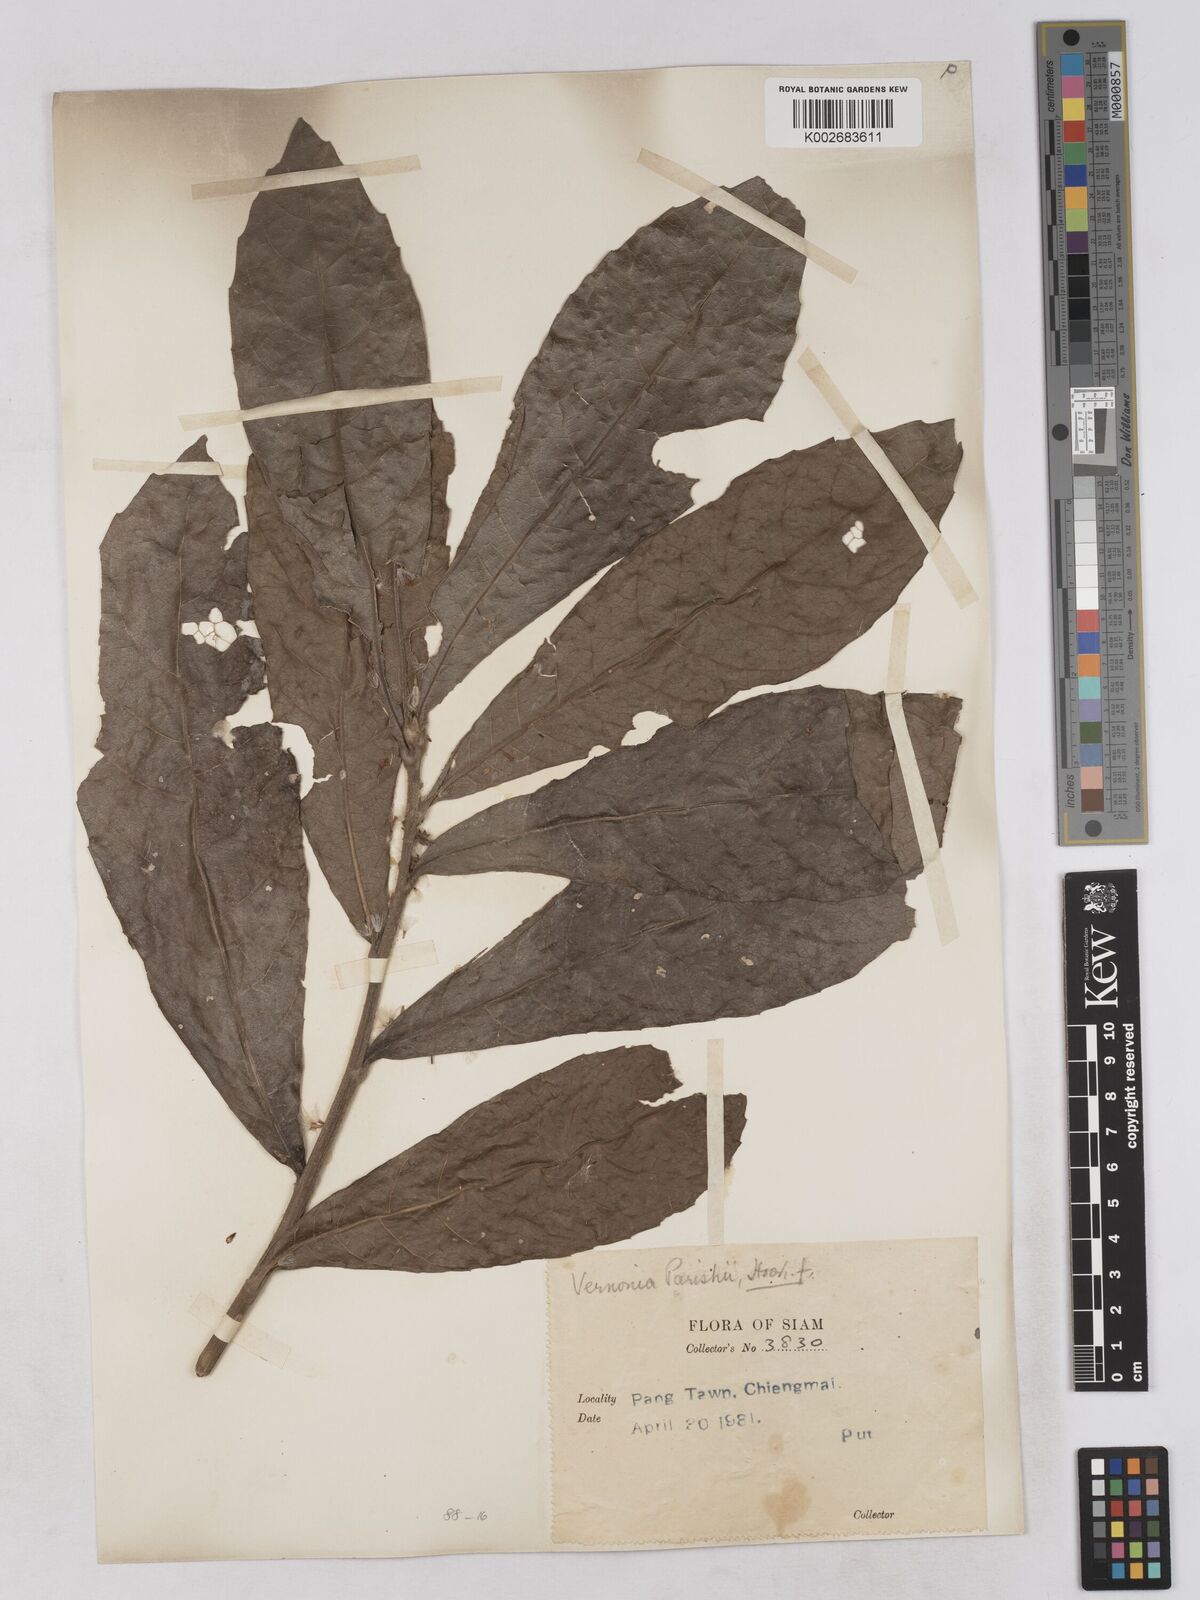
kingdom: Plantae
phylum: Tracheophyta
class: Magnoliopsida
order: Asterales
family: Asteraceae
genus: Monosis
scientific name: Monosis parishii
